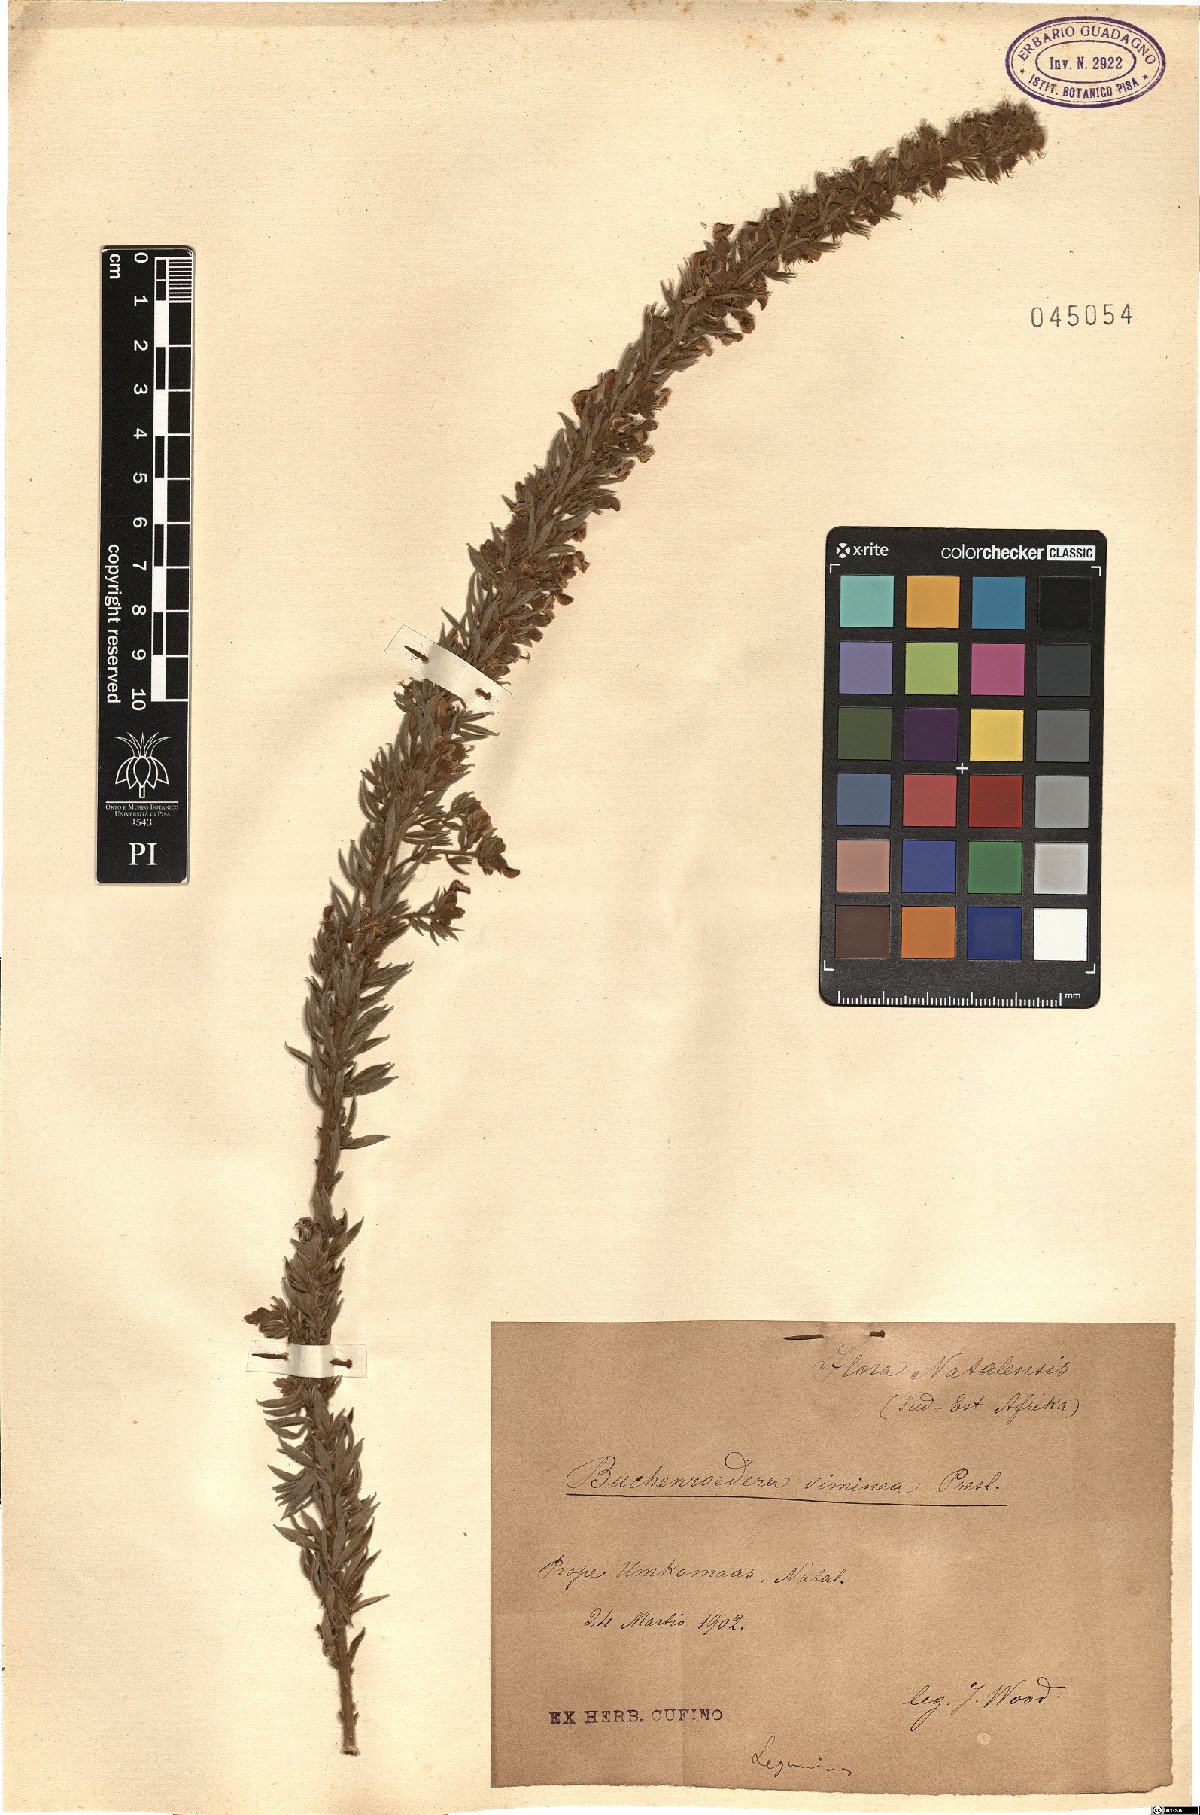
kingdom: Plantae
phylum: Tracheophyta
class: Magnoliopsida
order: Fabales
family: Fabaceae
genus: Lotononis
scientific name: Lotononis viminea
